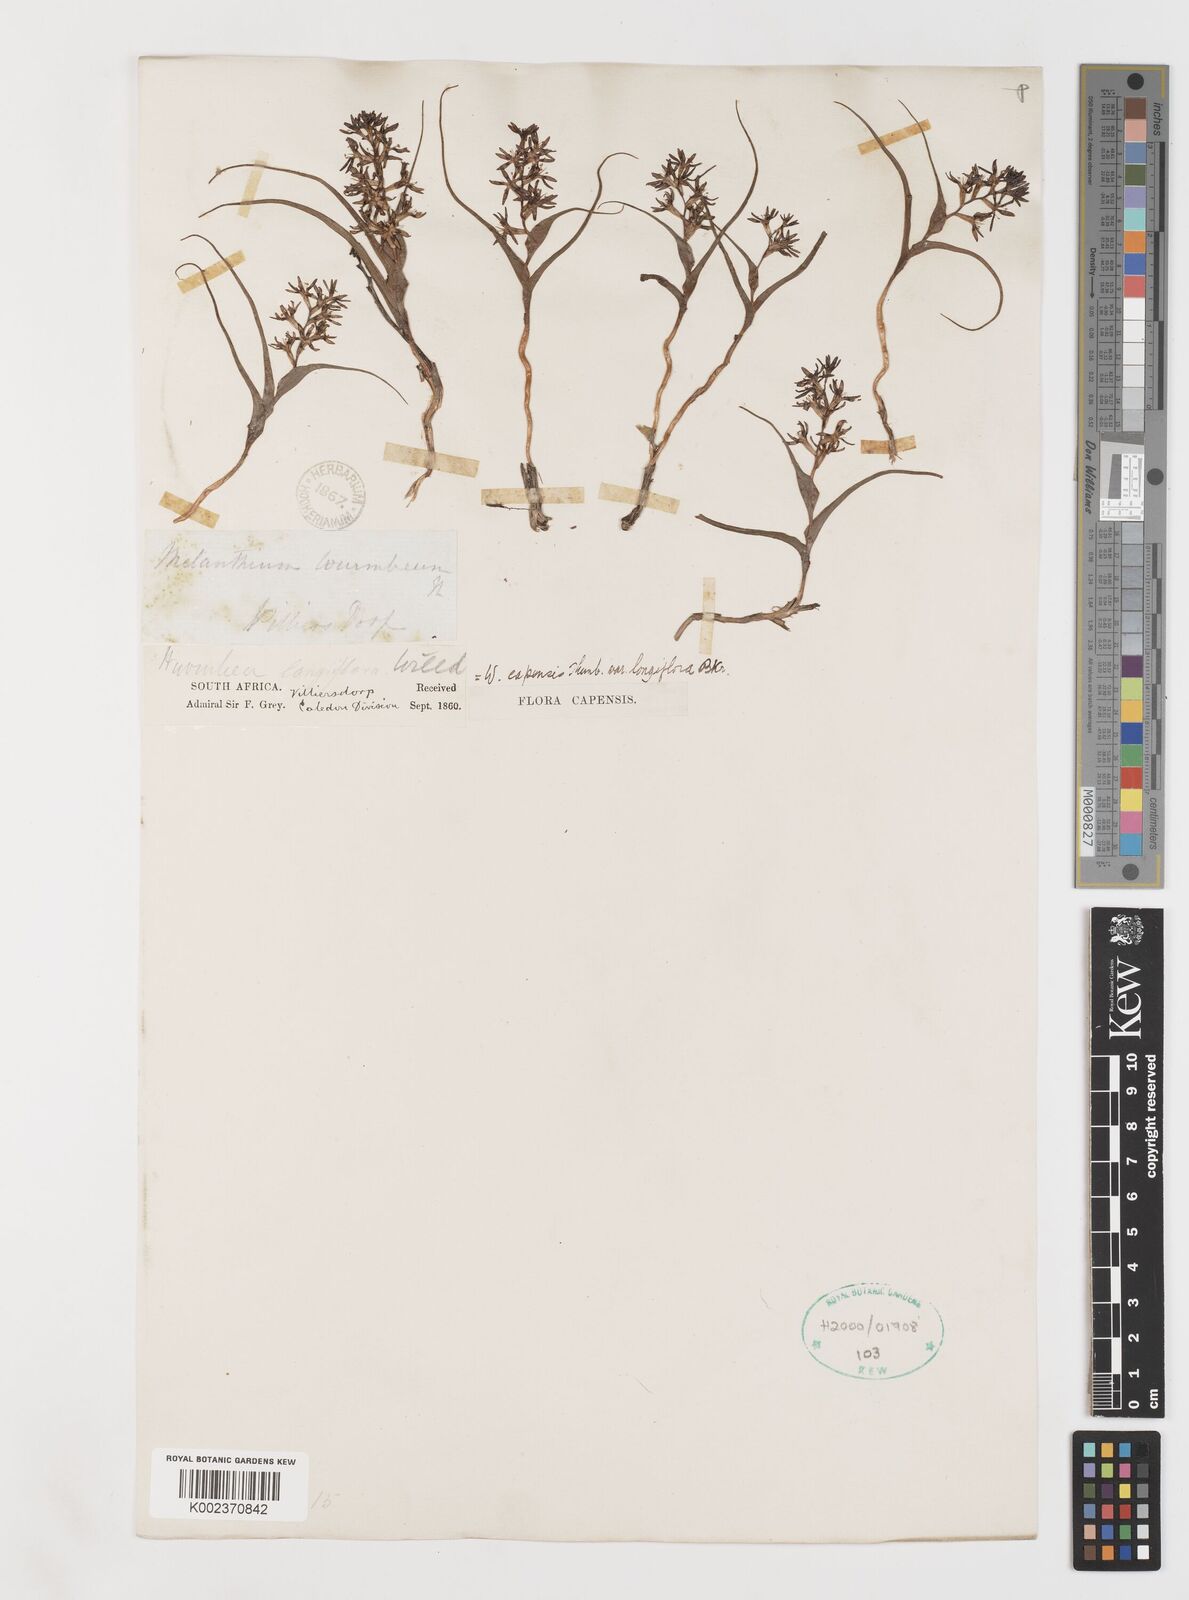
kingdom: Plantae
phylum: Tracheophyta
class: Liliopsida
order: Liliales
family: Colchicaceae
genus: Wurmbea
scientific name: Wurmbea capensis
